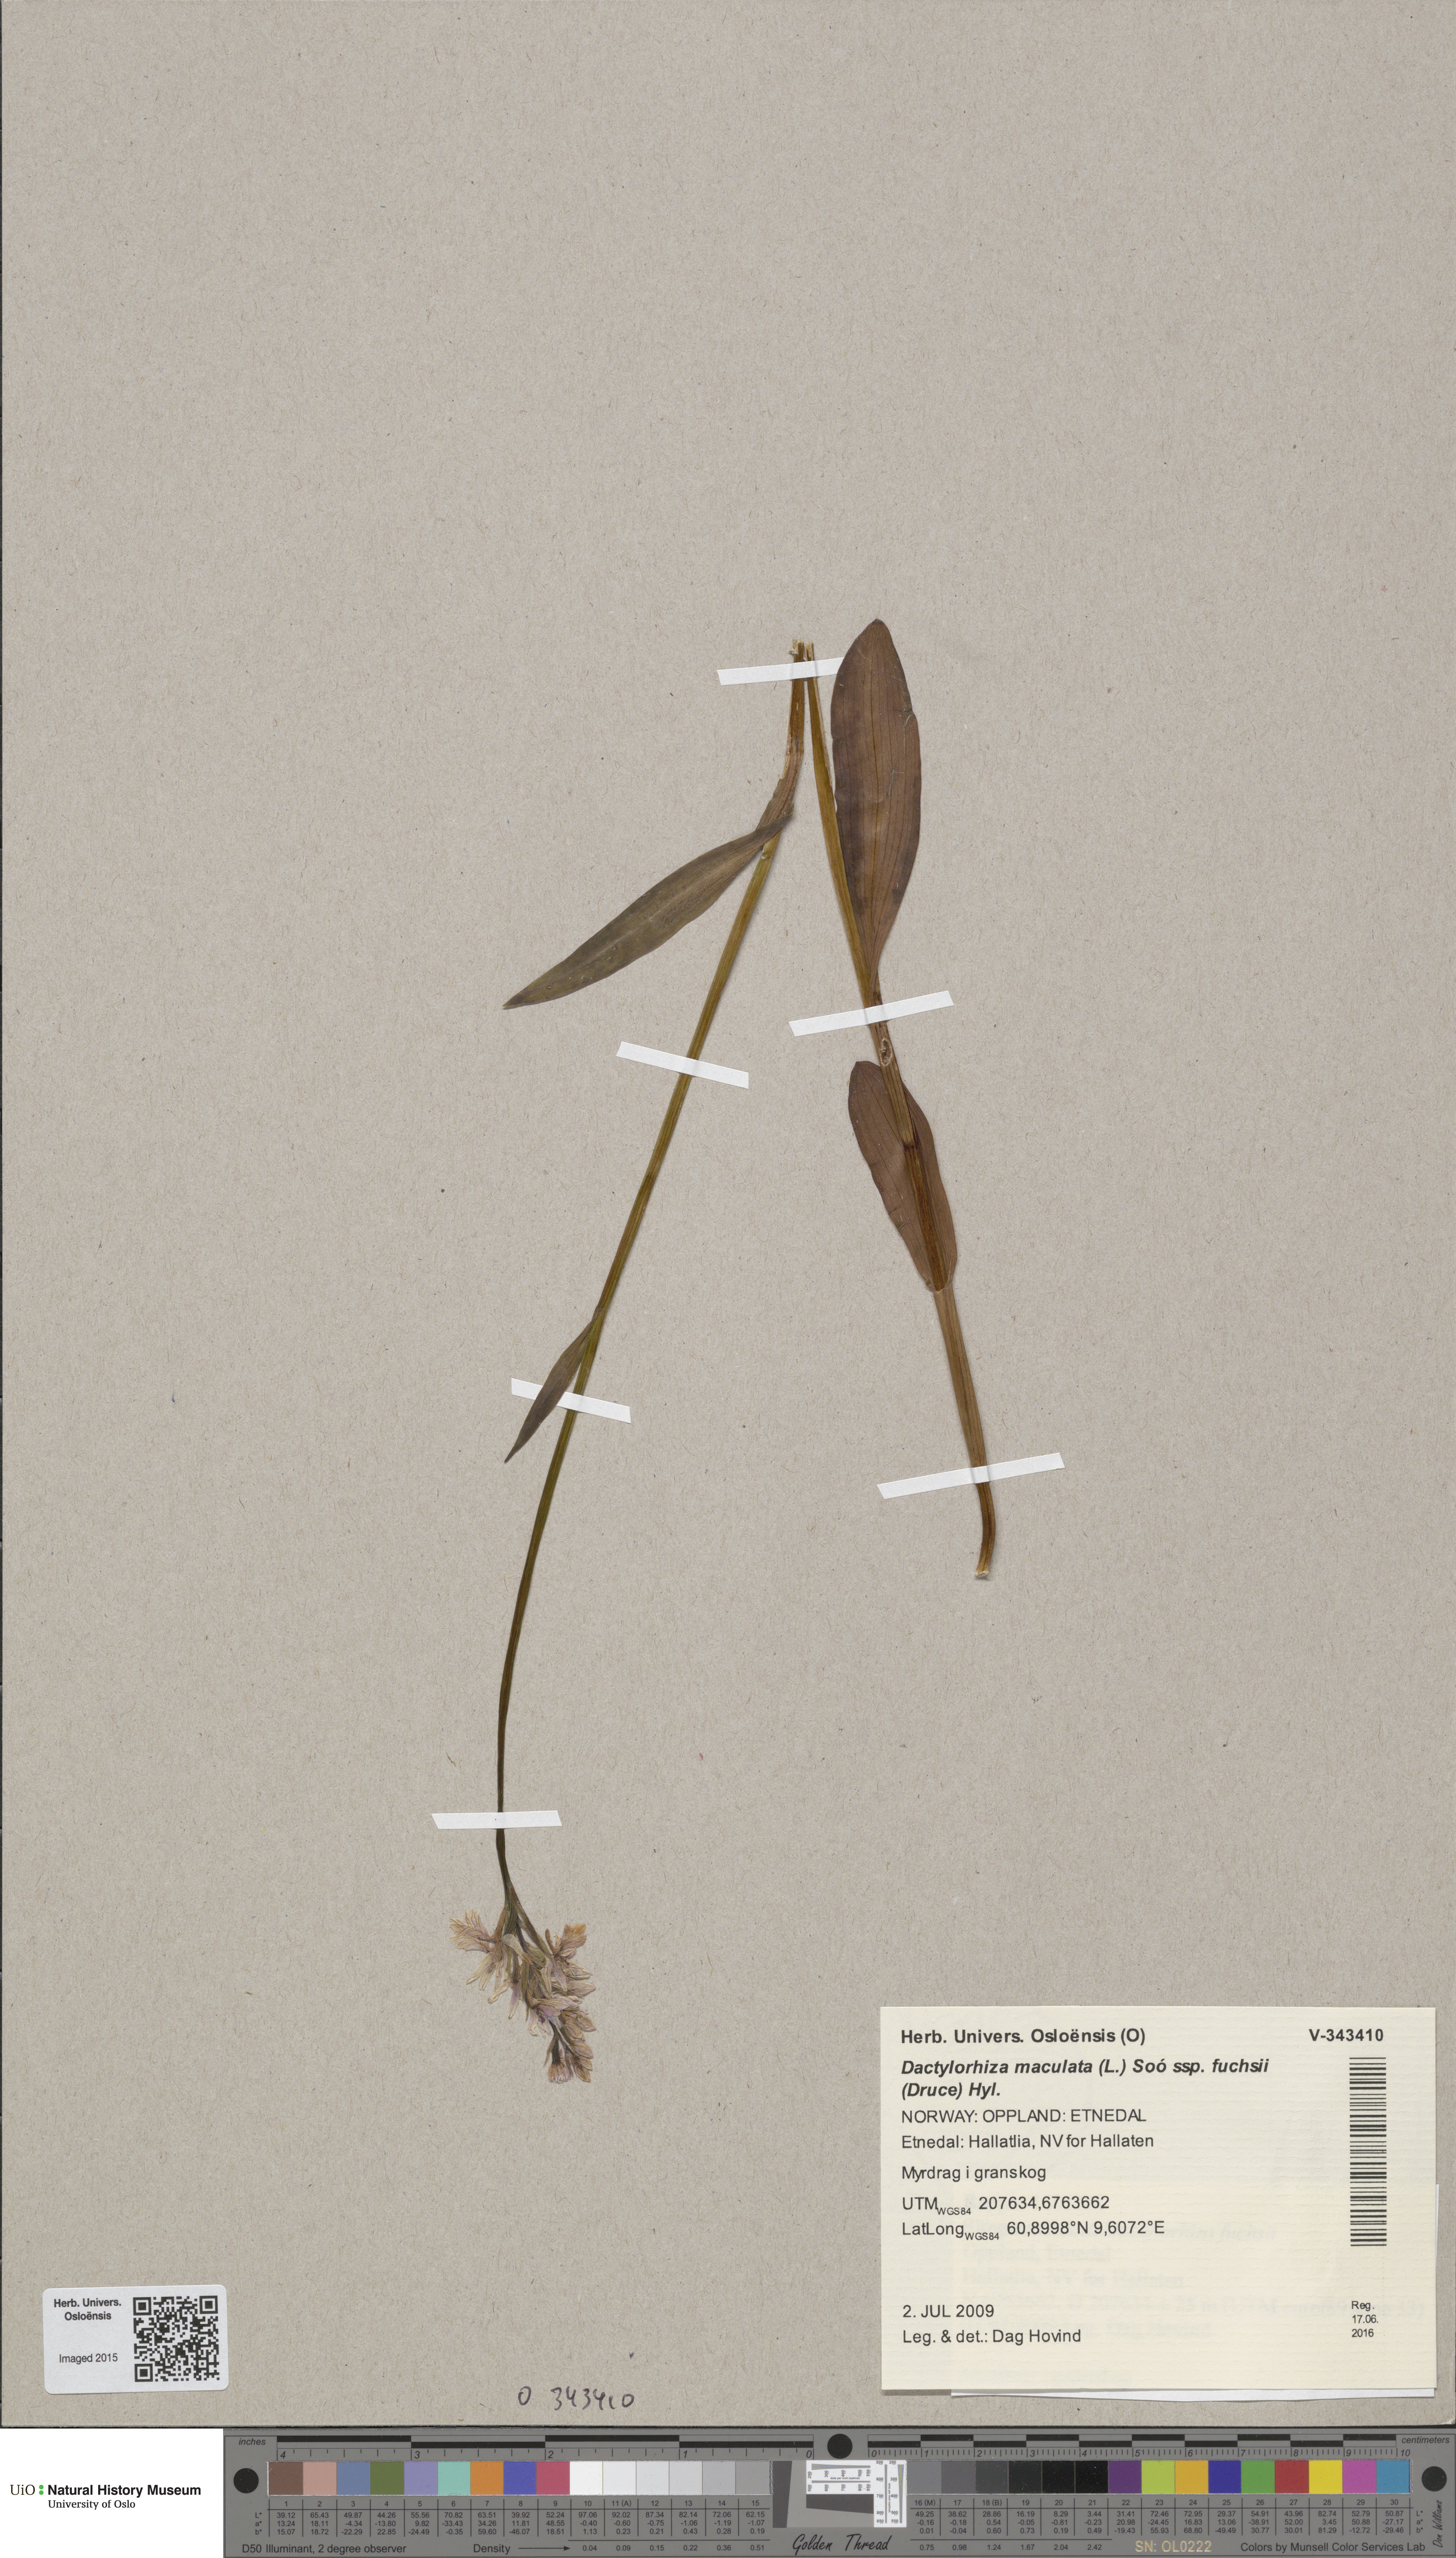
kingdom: Plantae
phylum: Tracheophyta
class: Liliopsida
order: Asparagales
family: Orchidaceae
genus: Dactylorhiza
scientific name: Dactylorhiza maculata
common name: Heath spotted-orchid
